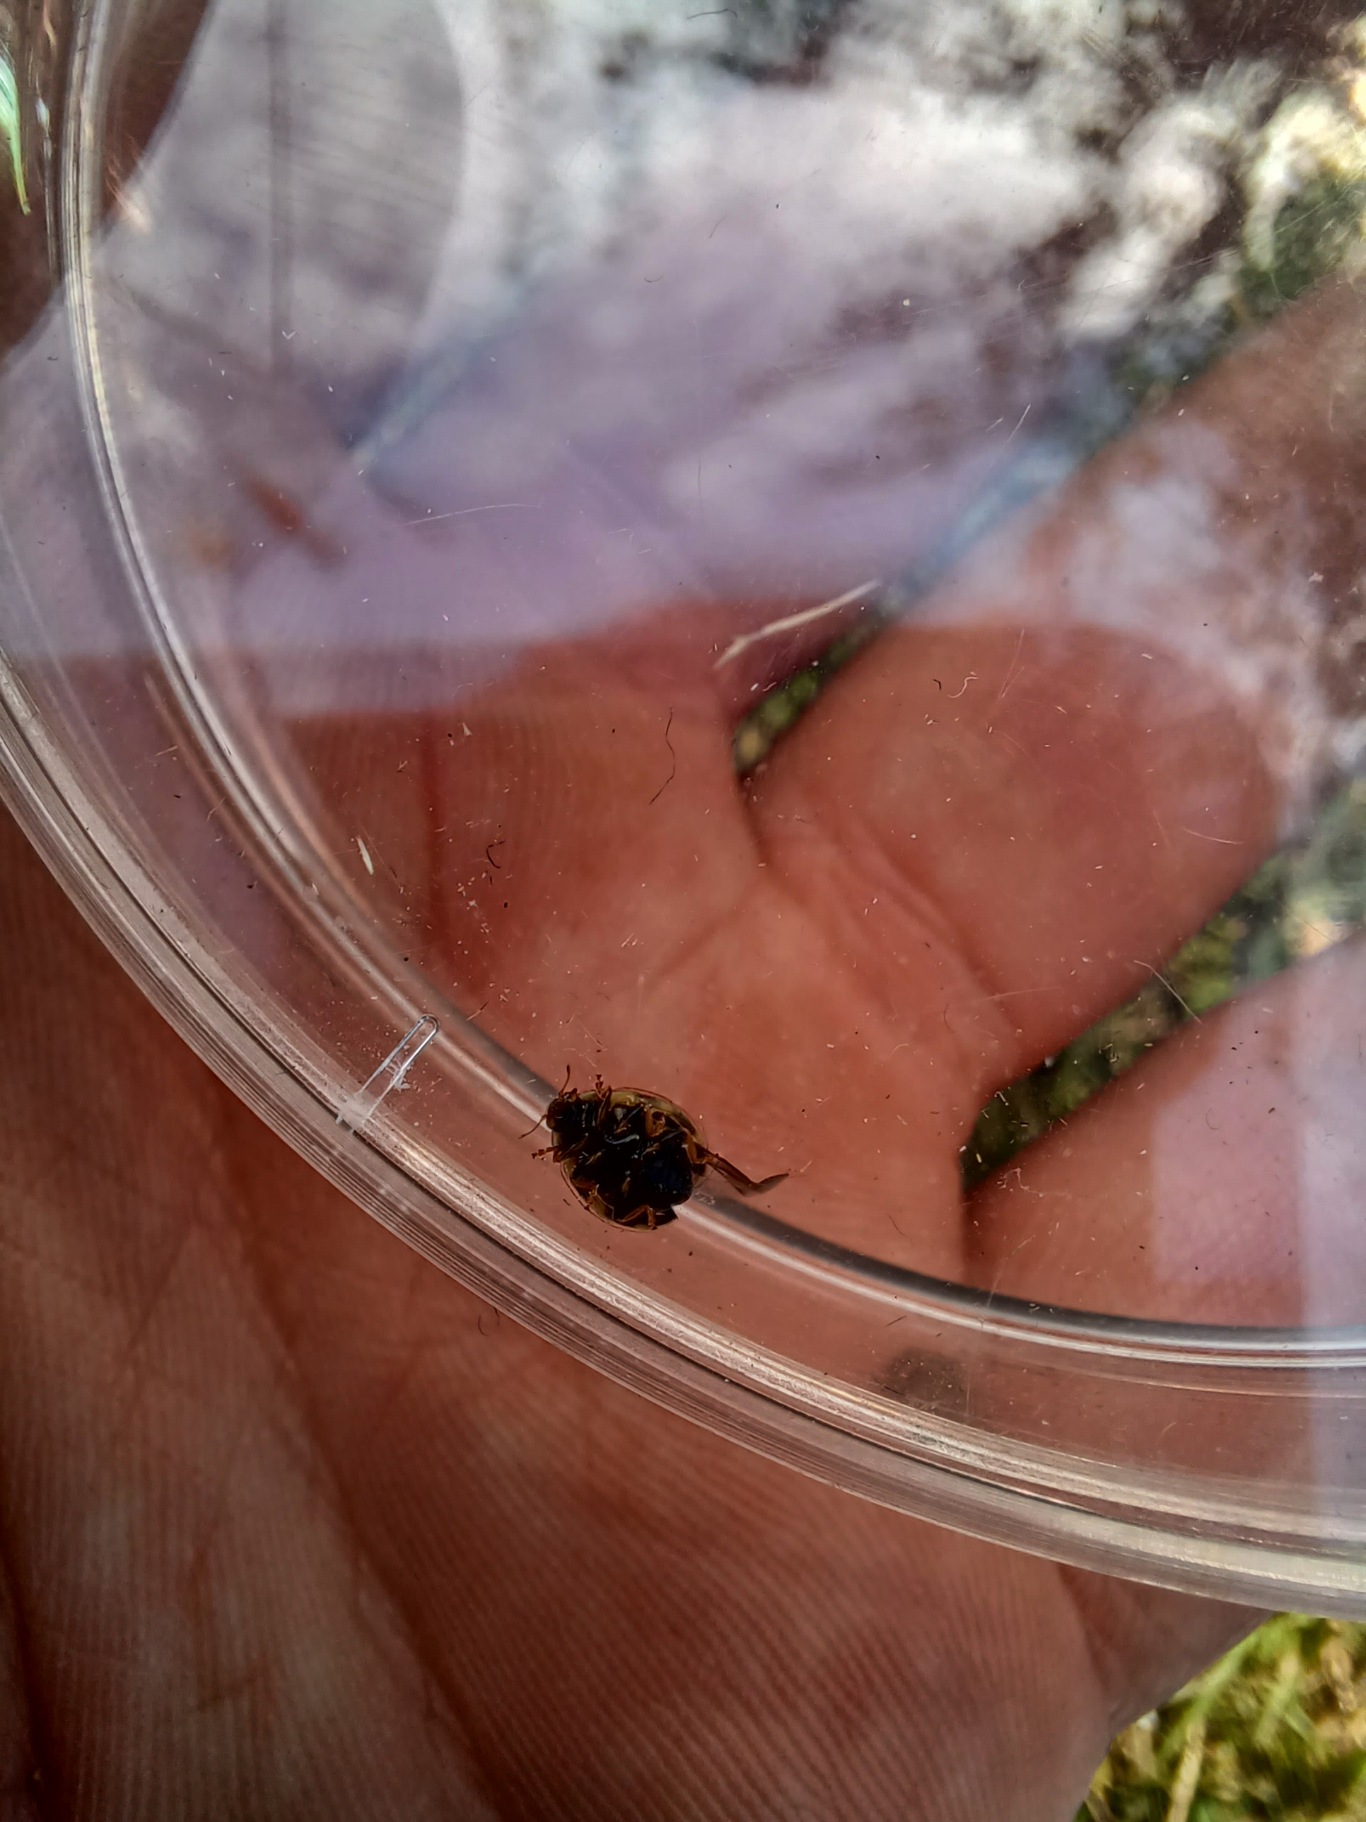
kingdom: Animalia
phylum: Arthropoda
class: Insecta
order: Coleoptera
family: Coccinellidae
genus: Propylaea
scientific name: Propylaea quatuordecimpunctata
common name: Skakbræt
